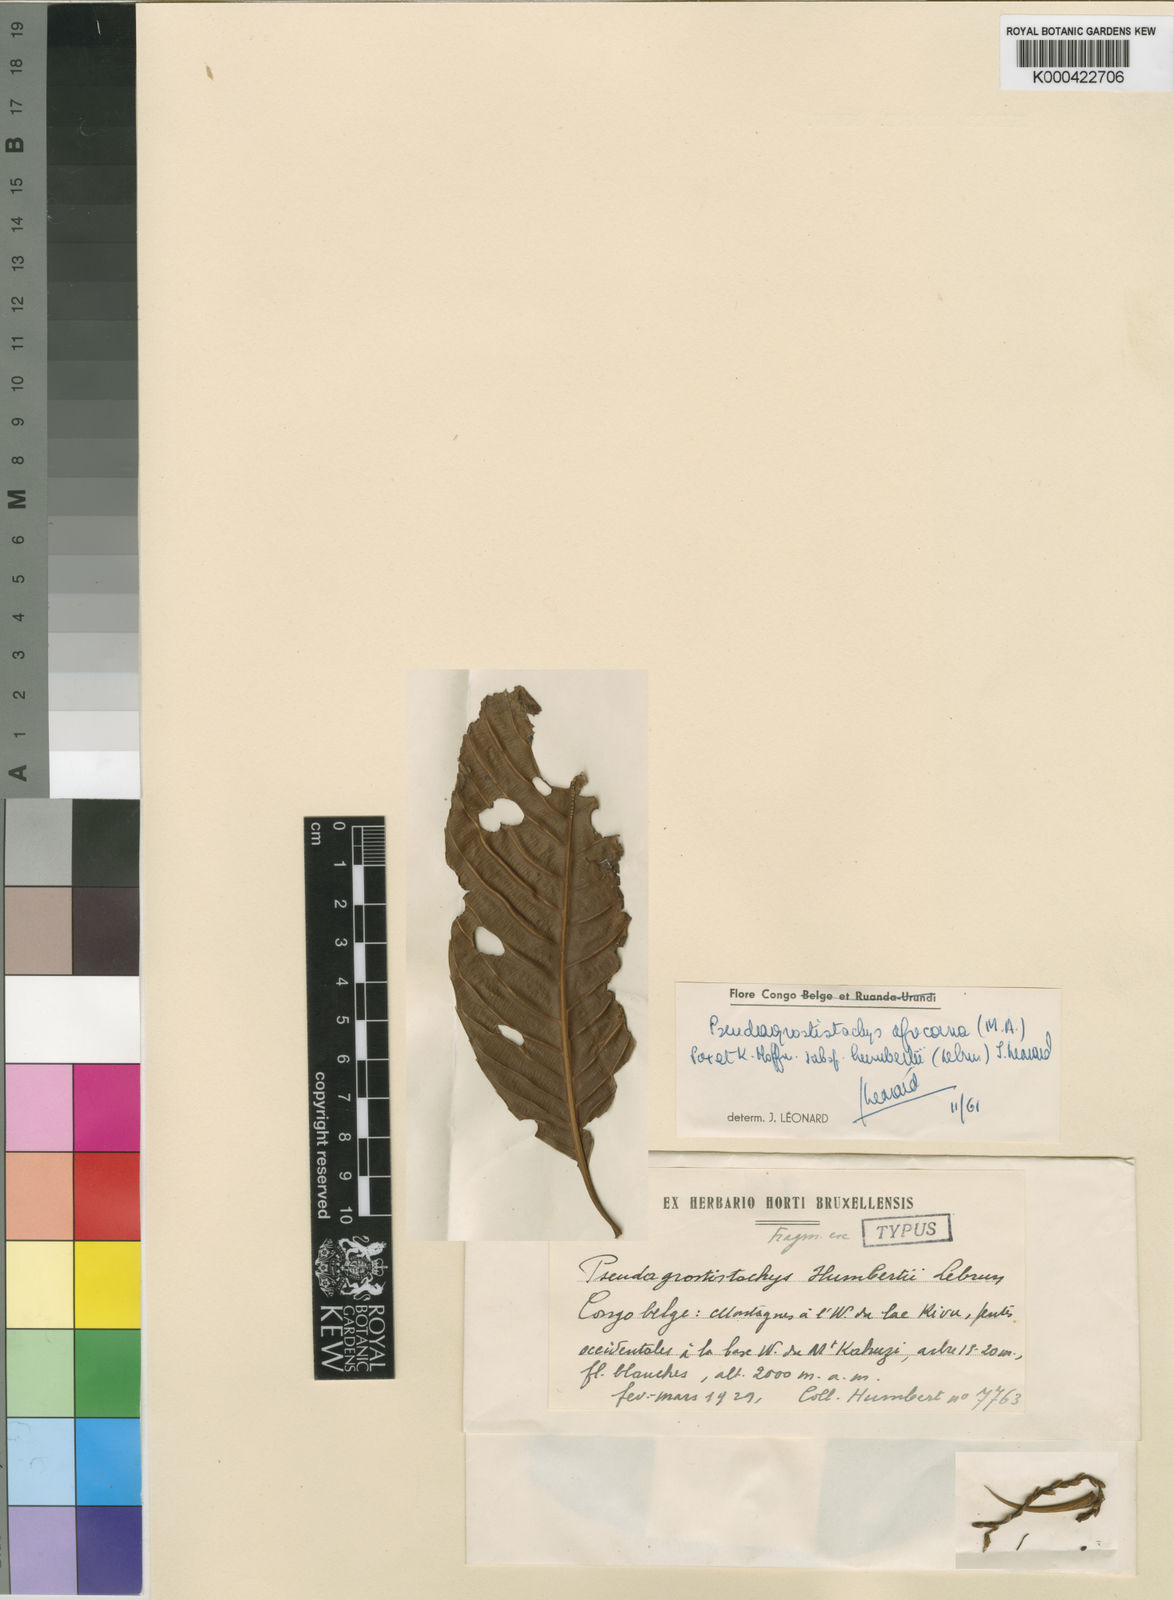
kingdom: Plantae
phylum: Tracheophyta
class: Magnoliopsida
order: Malpighiales
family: Euphorbiaceae
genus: Pseudagrostistachys
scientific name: Pseudagrostistachys
